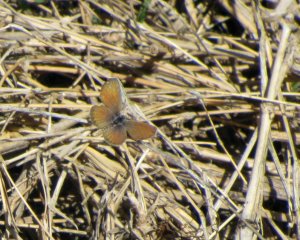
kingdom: Animalia
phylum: Arthropoda
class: Insecta
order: Lepidoptera
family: Lycaenidae
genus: Echinargus
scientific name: Echinargus isola
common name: Reakirt's Blue
